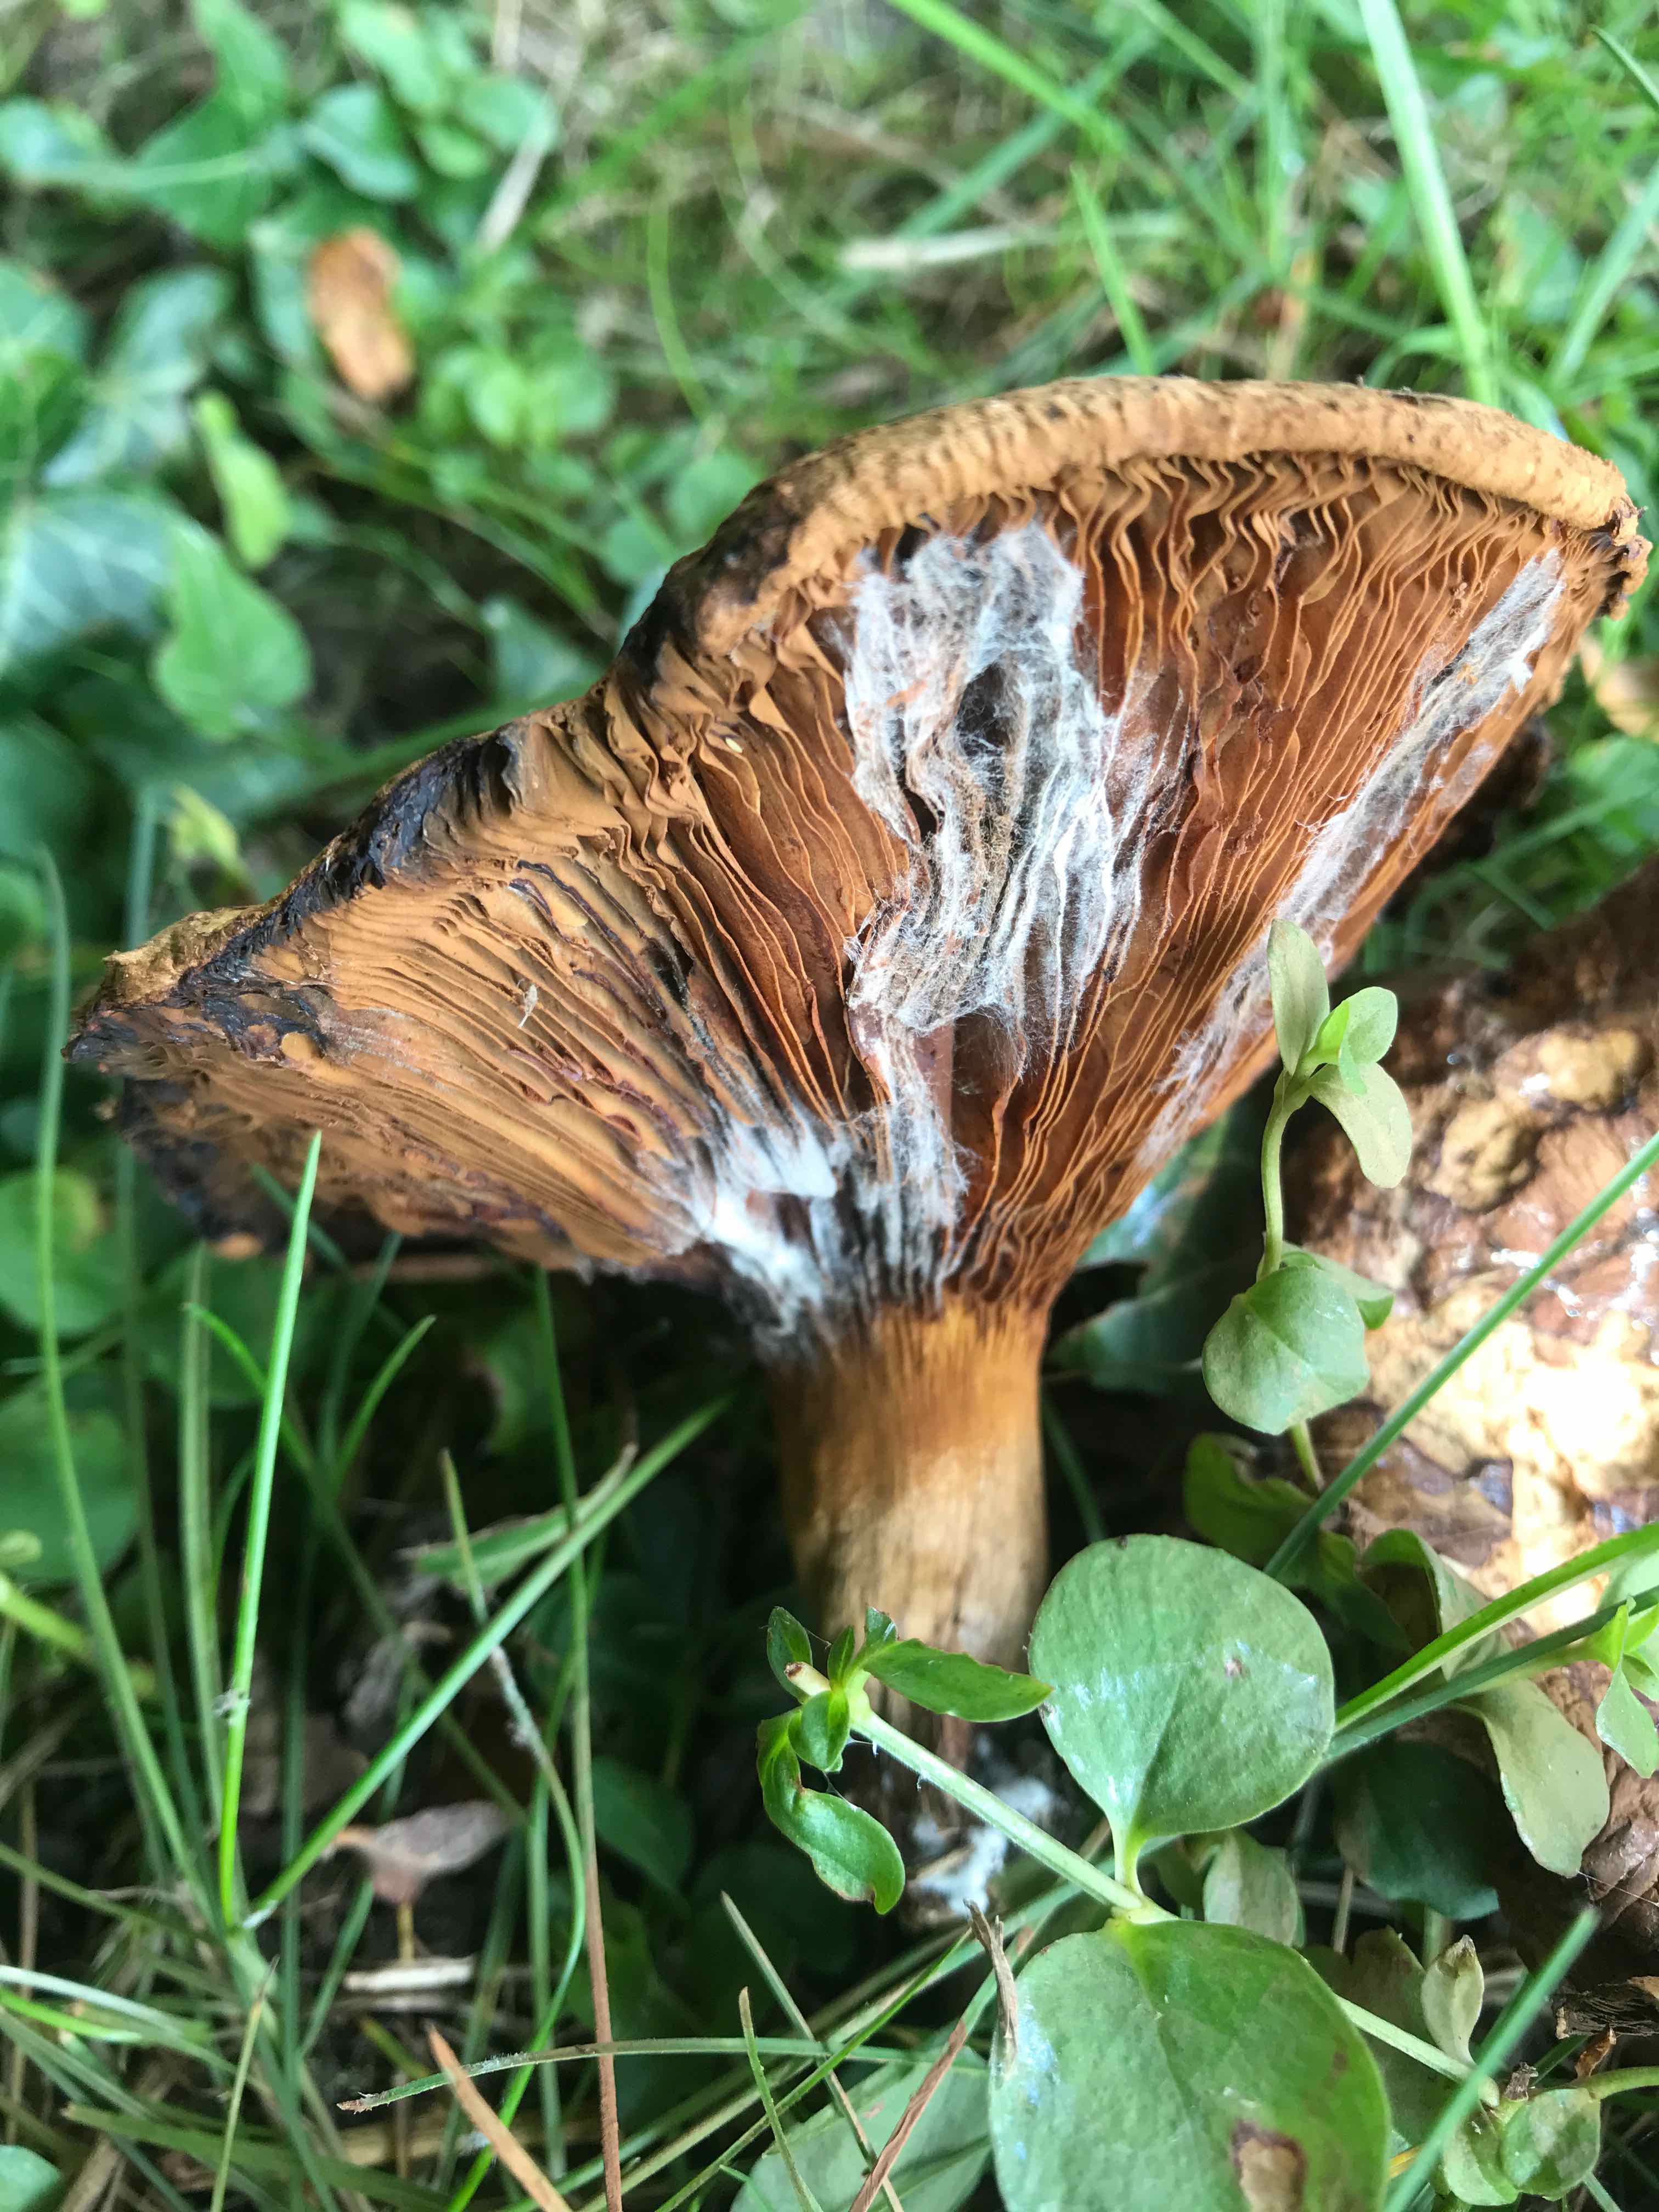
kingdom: Fungi
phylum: Basidiomycota
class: Agaricomycetes
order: Boletales
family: Paxillaceae
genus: Paxillus
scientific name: Paxillus
